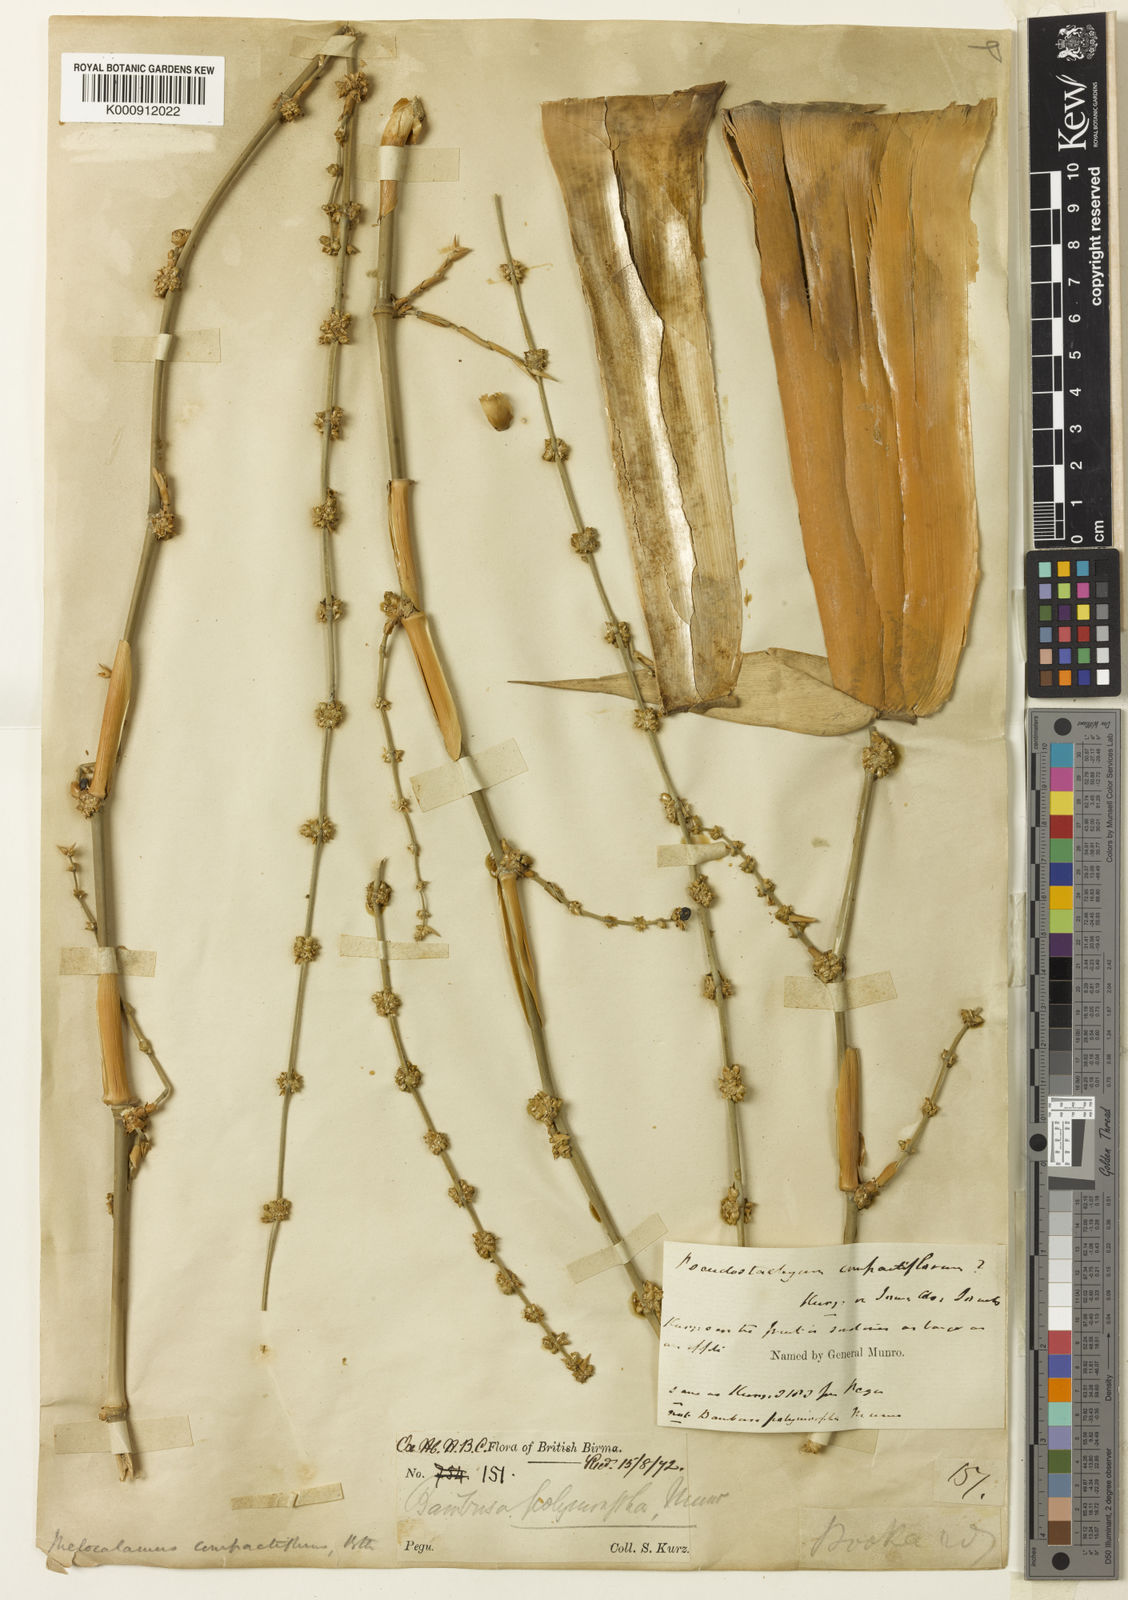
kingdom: Plantae
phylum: Tracheophyta
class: Liliopsida
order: Poales
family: Poaceae
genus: Melocalamus
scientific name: Melocalamus compactiflorus
